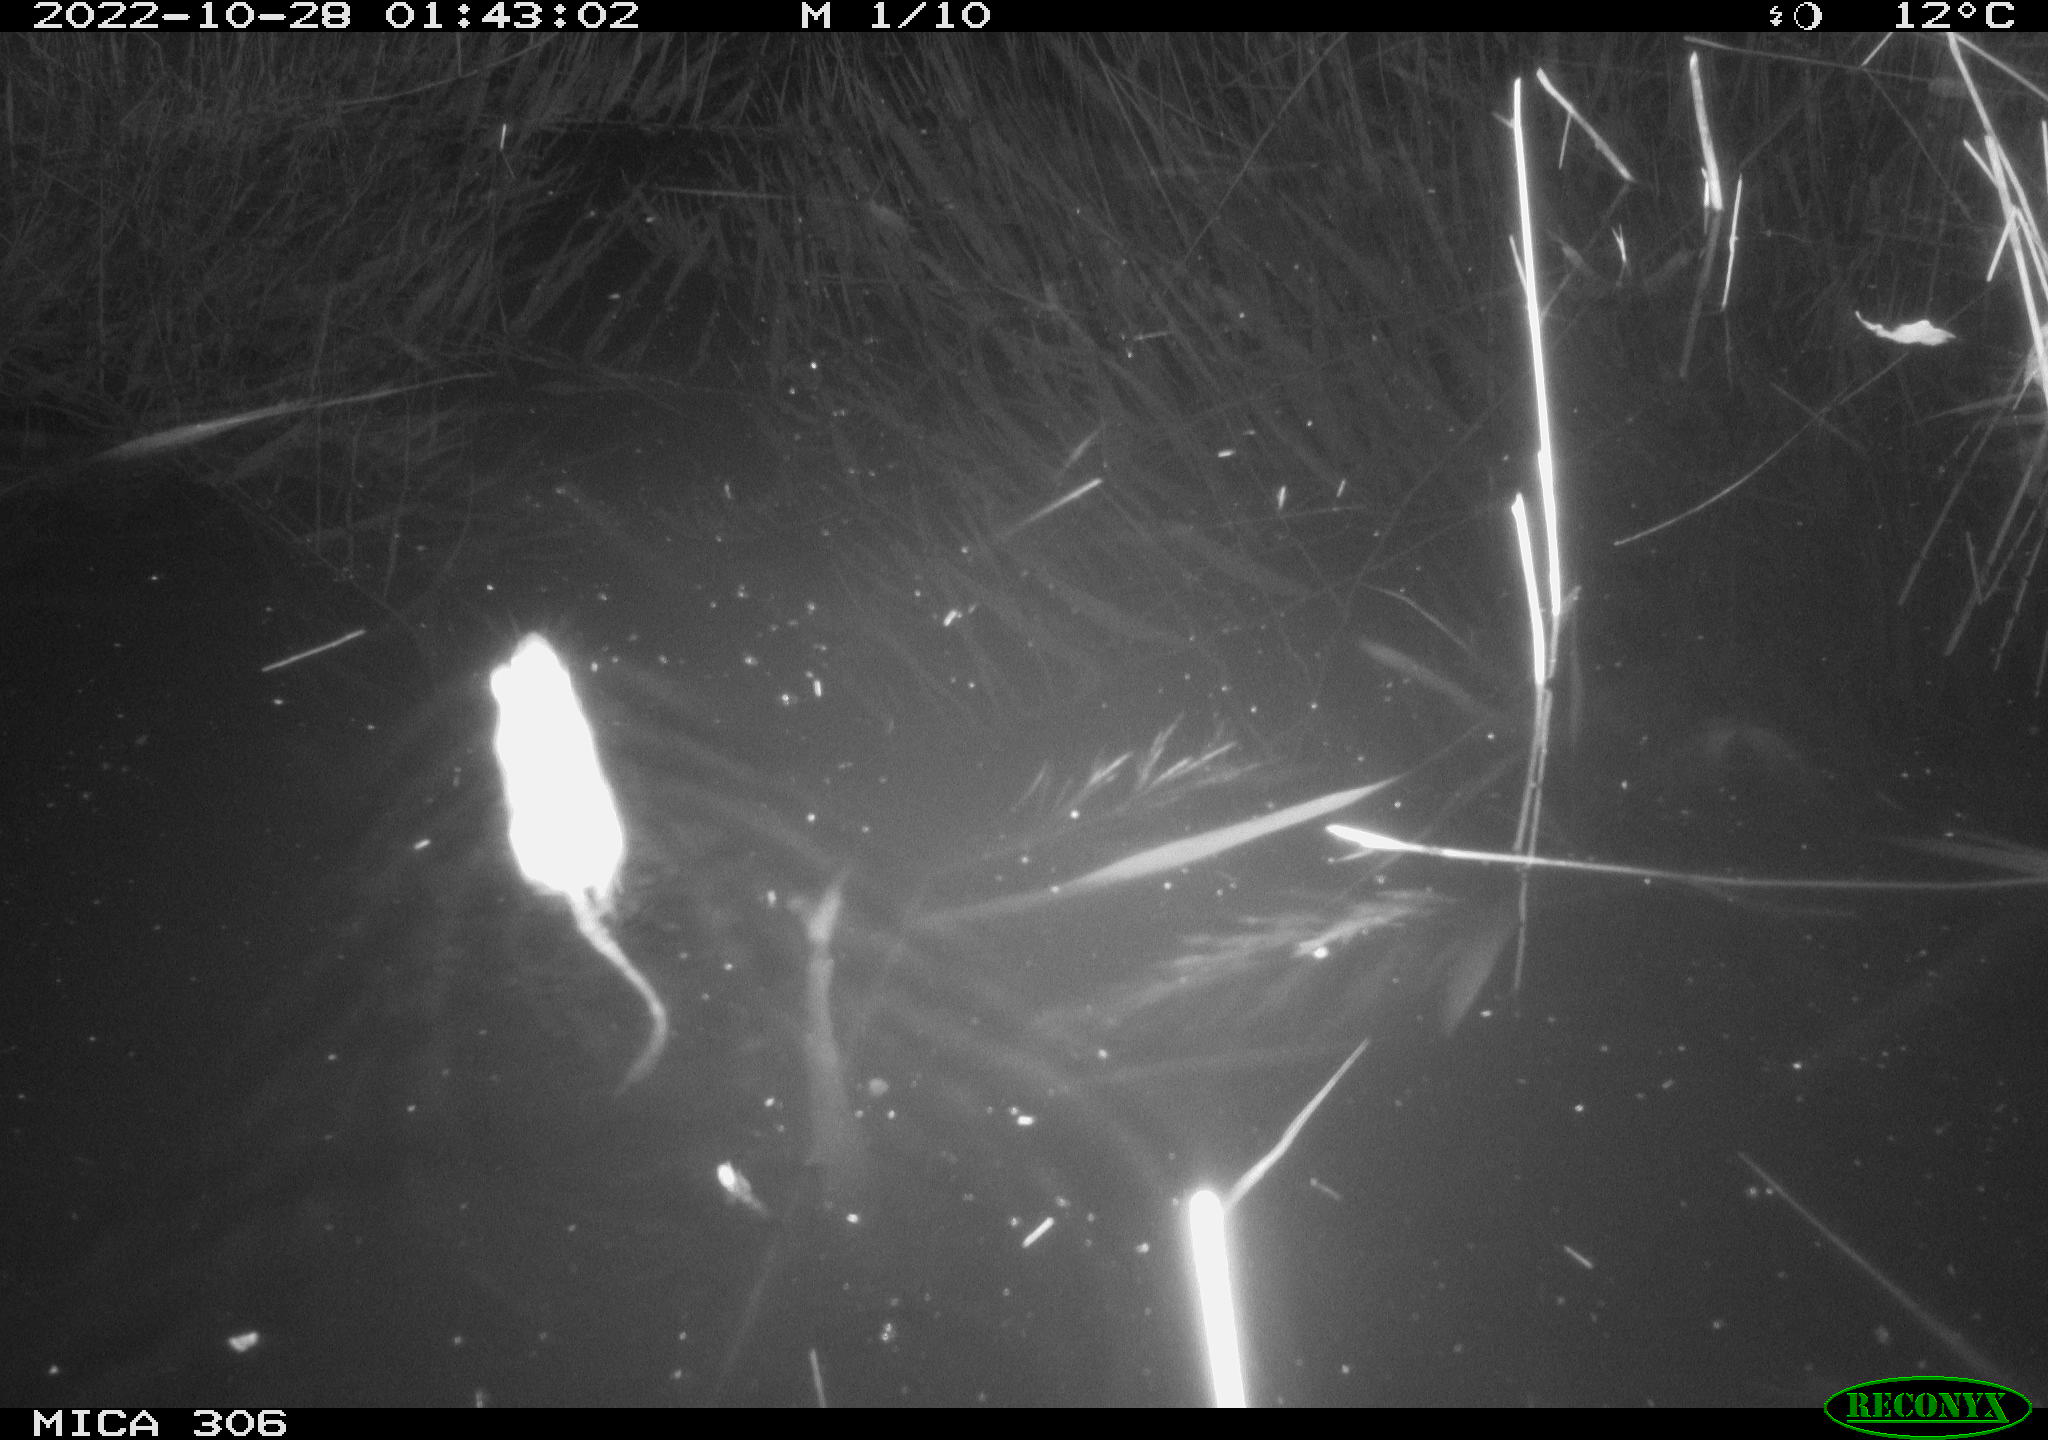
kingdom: Animalia
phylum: Chordata
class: Mammalia
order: Rodentia
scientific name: Rodentia
